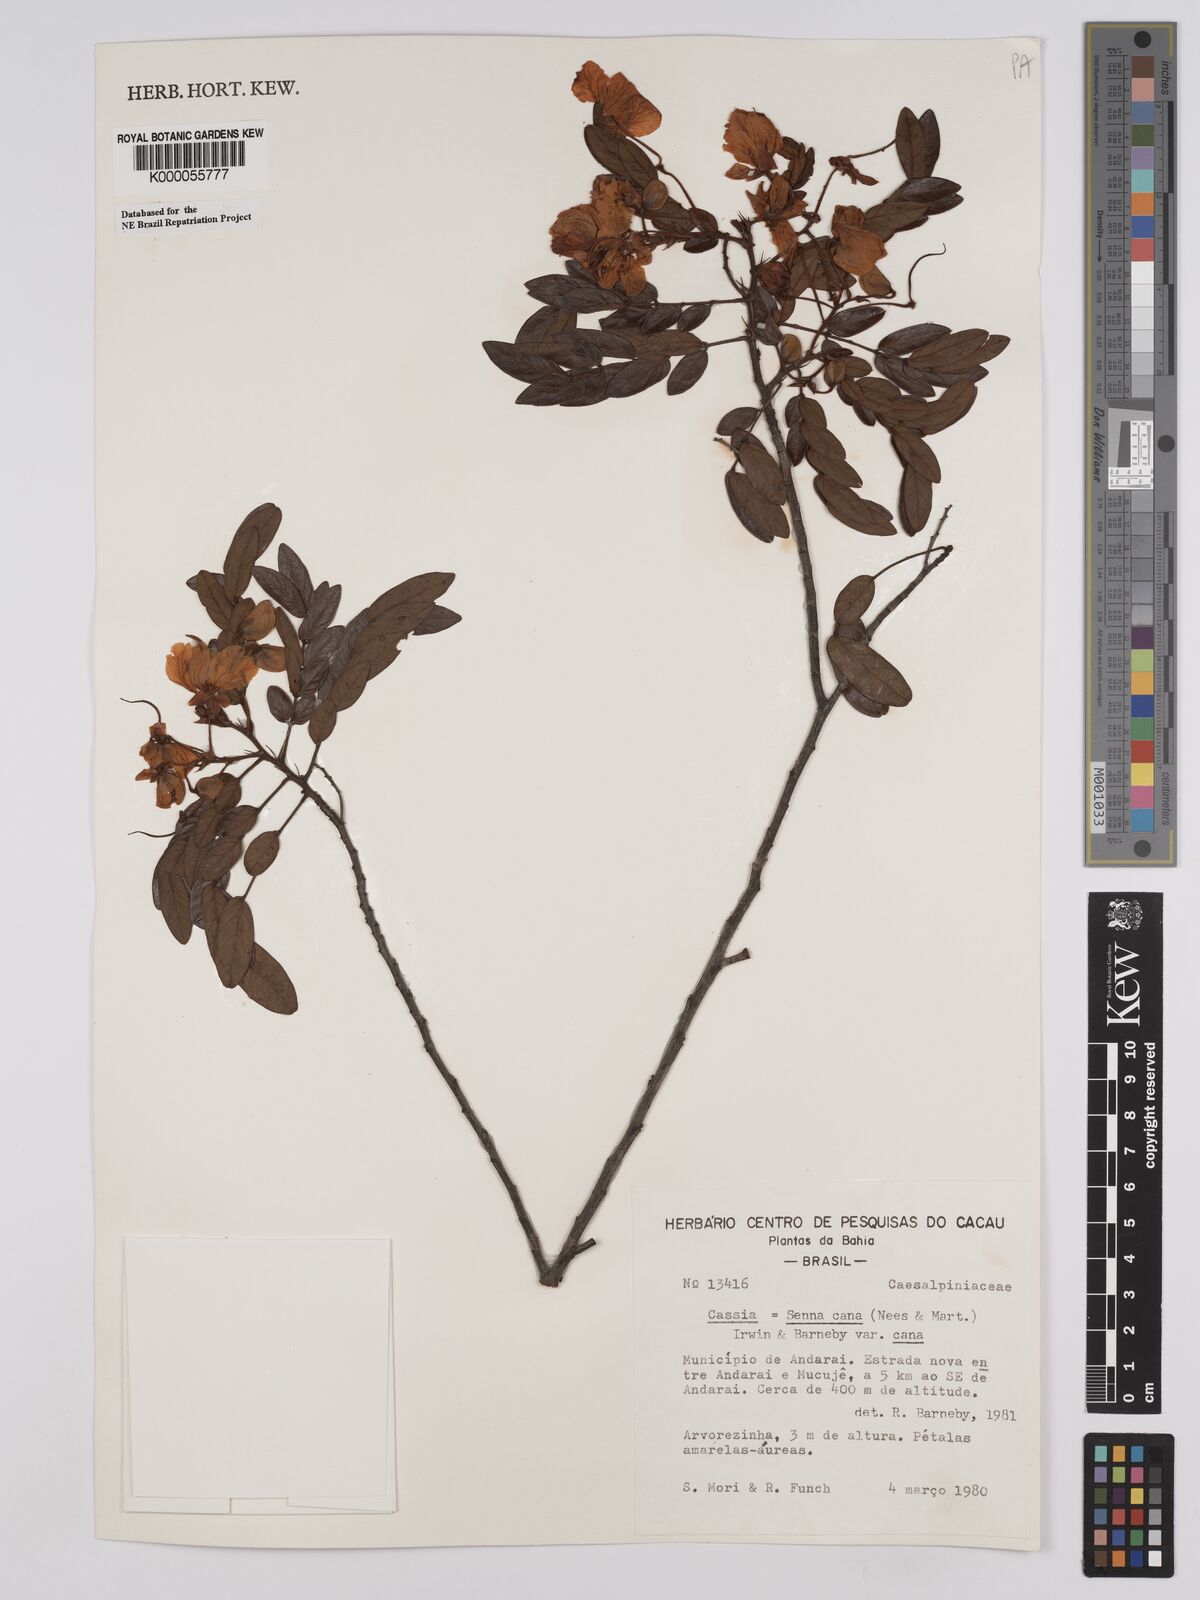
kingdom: Plantae
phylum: Tracheophyta
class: Magnoliopsida
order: Fabales
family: Fabaceae
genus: Senna
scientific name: Senna cana
